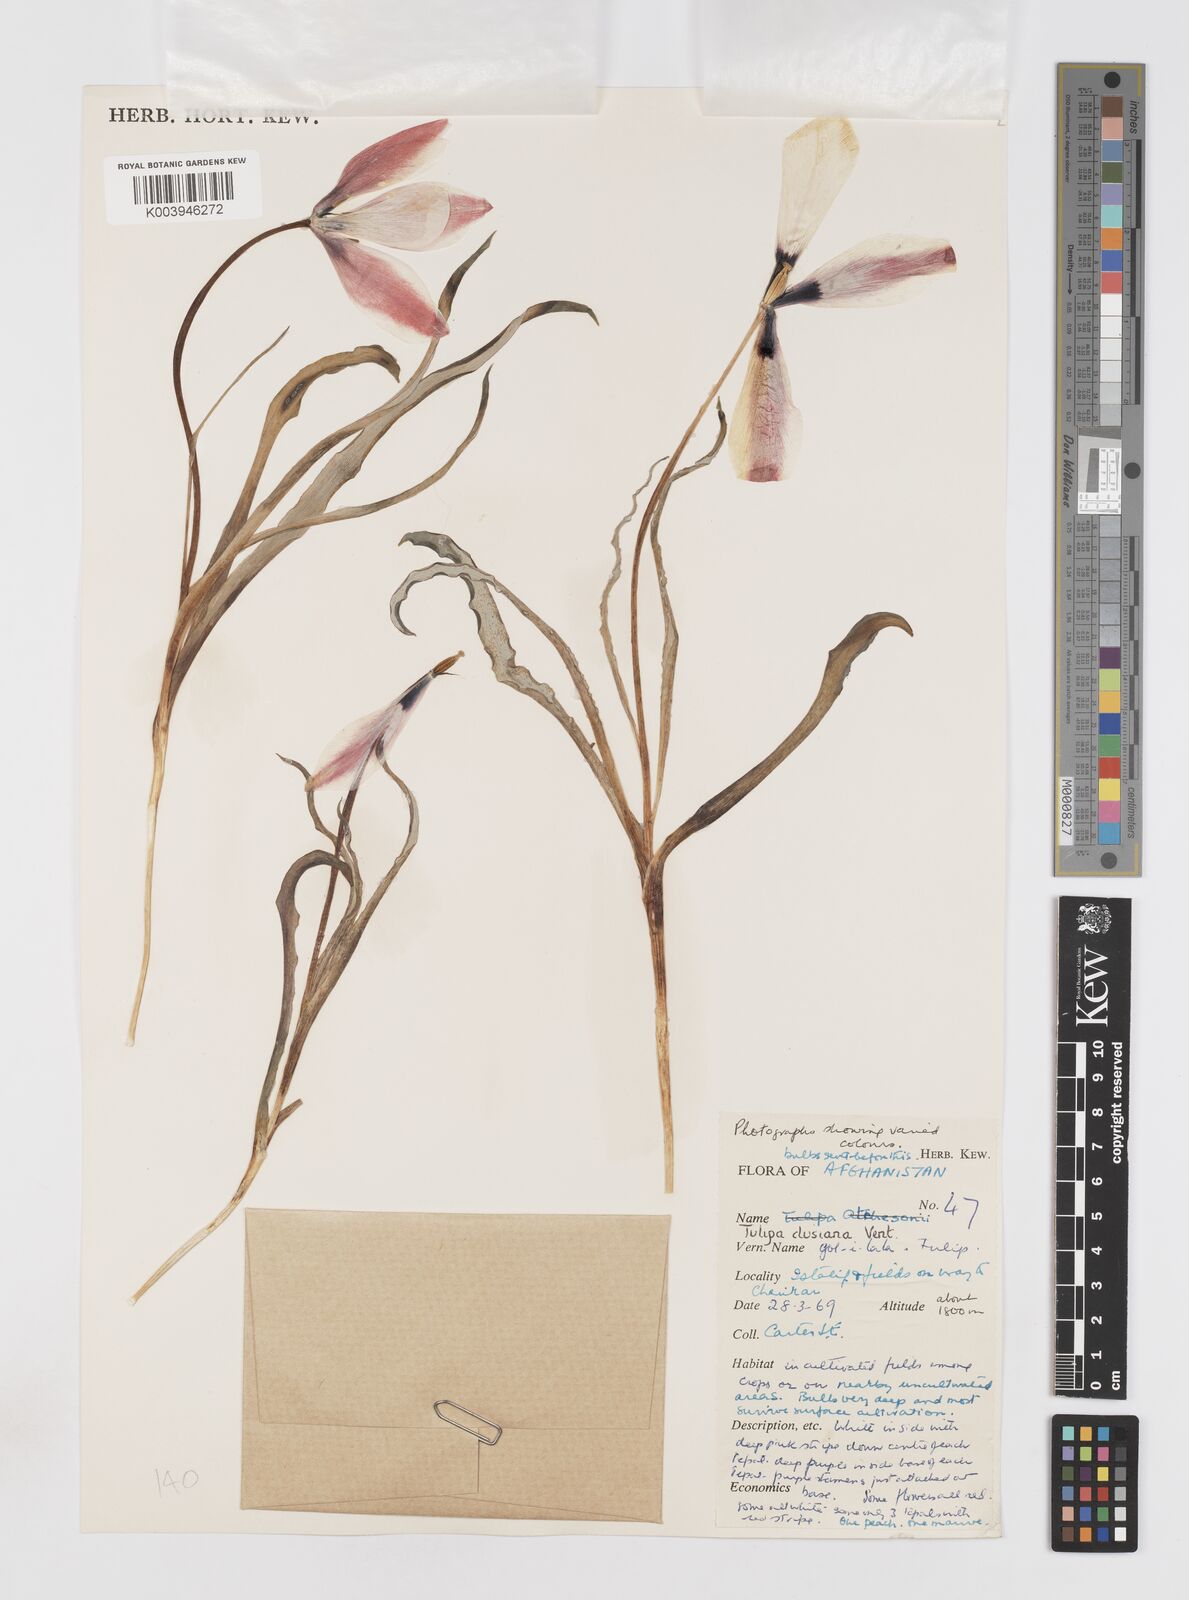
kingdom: Plantae
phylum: Tracheophyta
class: Liliopsida
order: Liliales
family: Liliaceae
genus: Tulipa
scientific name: Tulipa clusiana
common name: Lady tulip
